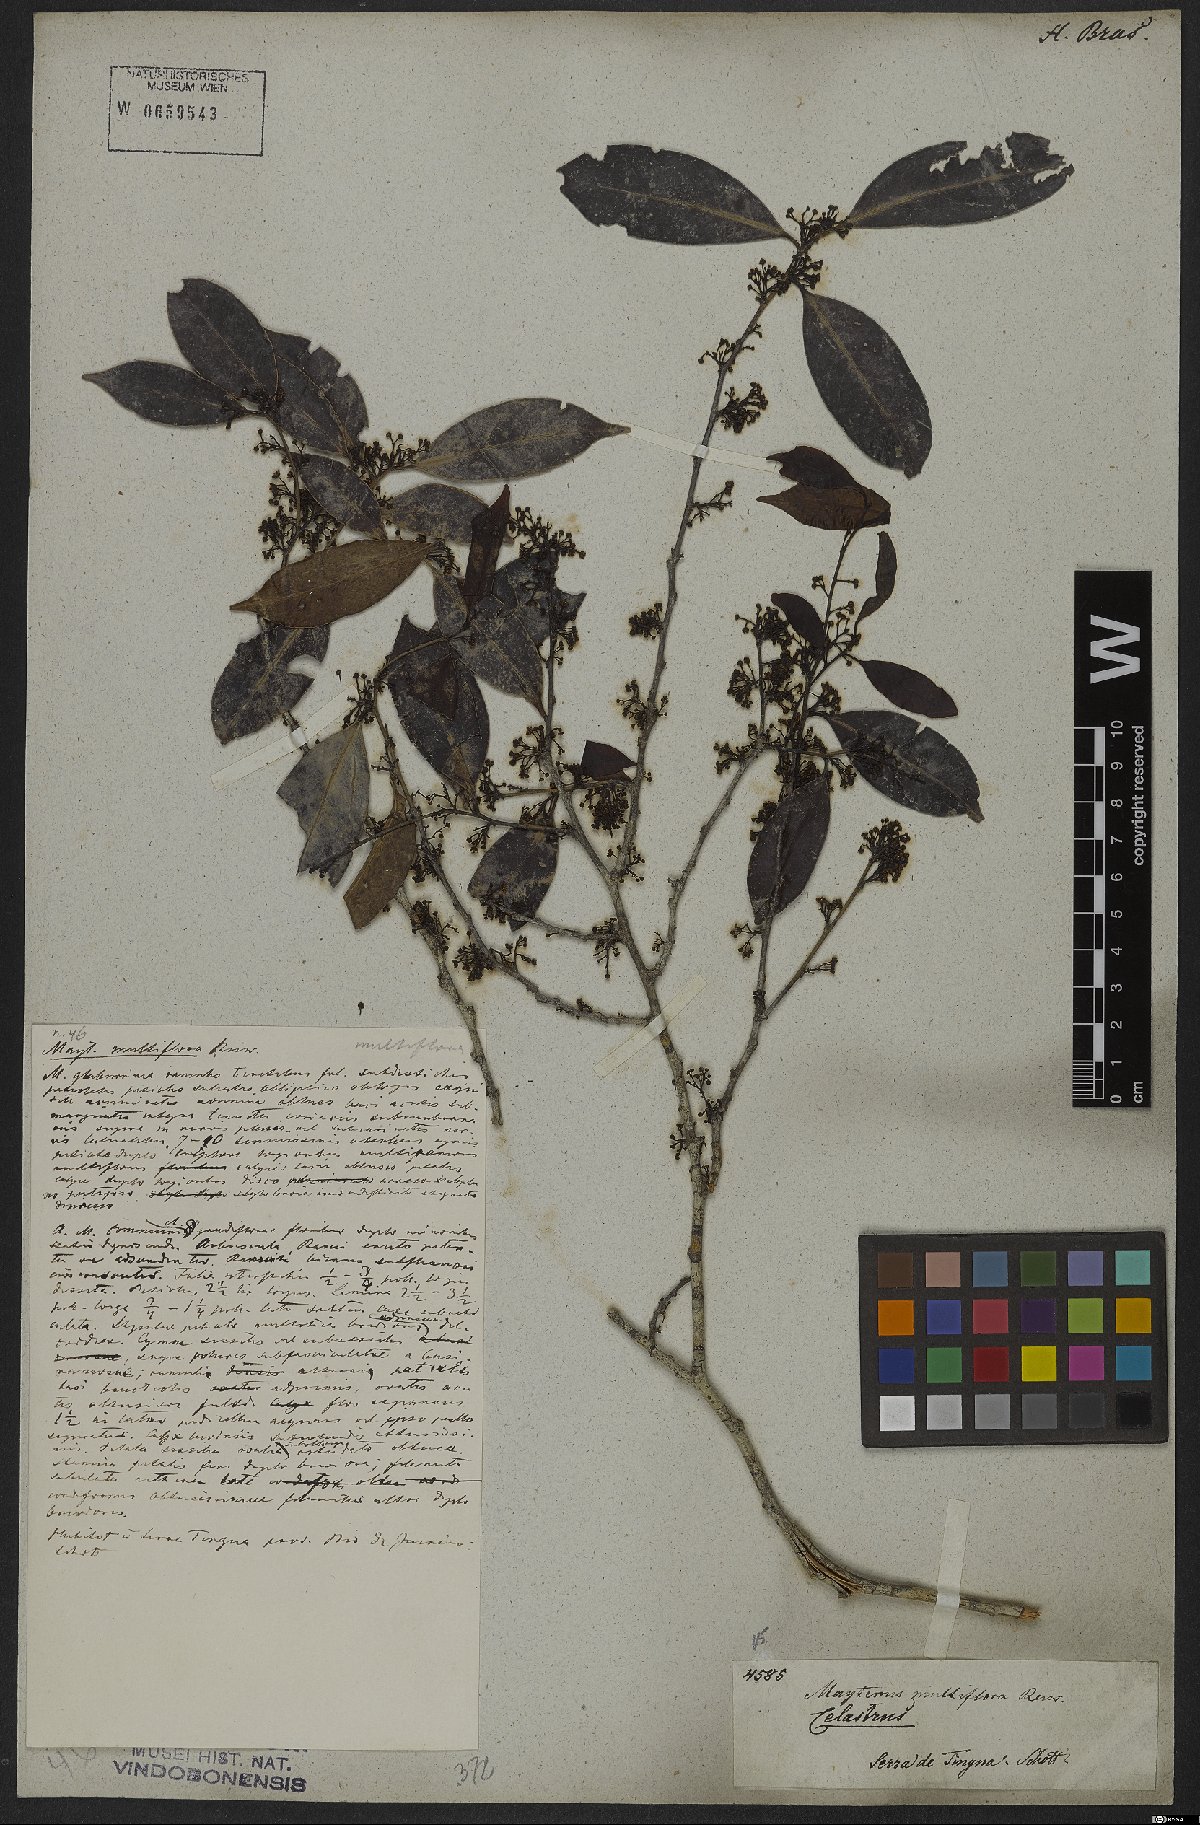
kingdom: Plantae
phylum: Tracheophyta
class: Magnoliopsida
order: Celastrales
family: Celastraceae
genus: Monteverdia
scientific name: Monteverdia macrocarpa
